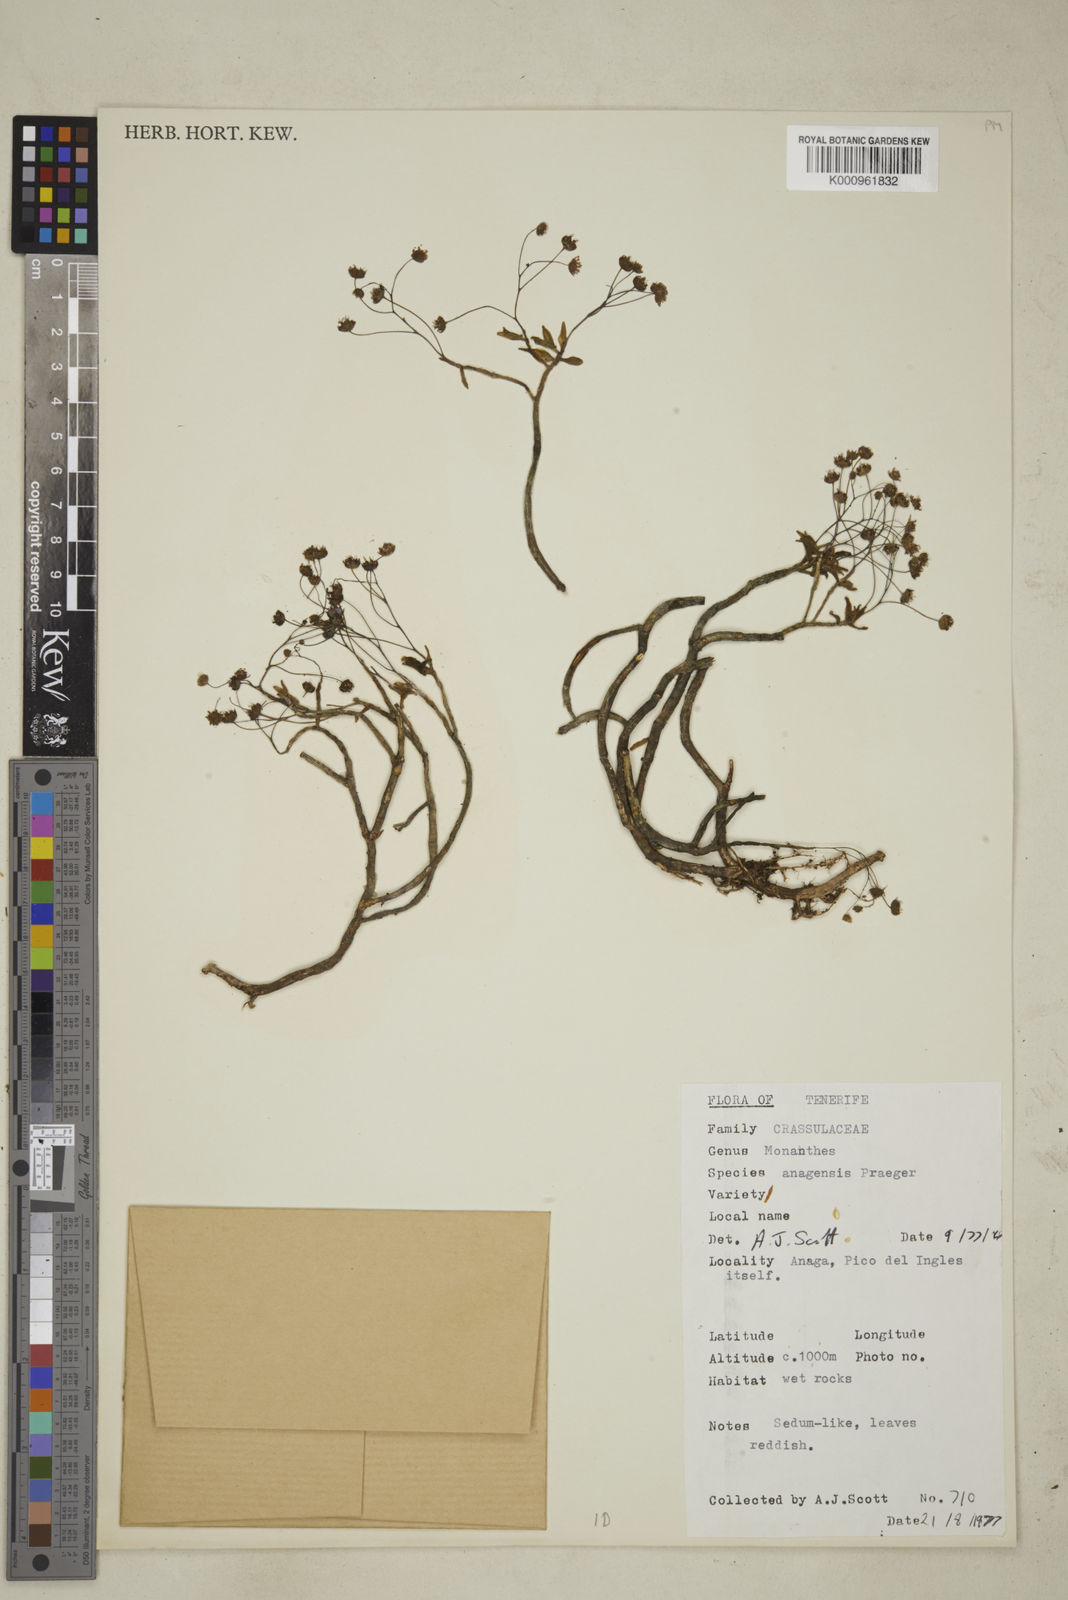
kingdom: Plantae
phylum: Tracheophyta
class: Magnoliopsida
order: Saxifragales
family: Crassulaceae
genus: Monanthes
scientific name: Monanthes anagensis
